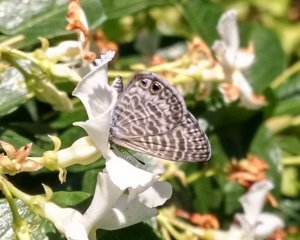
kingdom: Animalia
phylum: Arthropoda
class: Insecta
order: Lepidoptera
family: Lycaenidae
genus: Leptotes
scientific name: Leptotes marina
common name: Marine Blue
